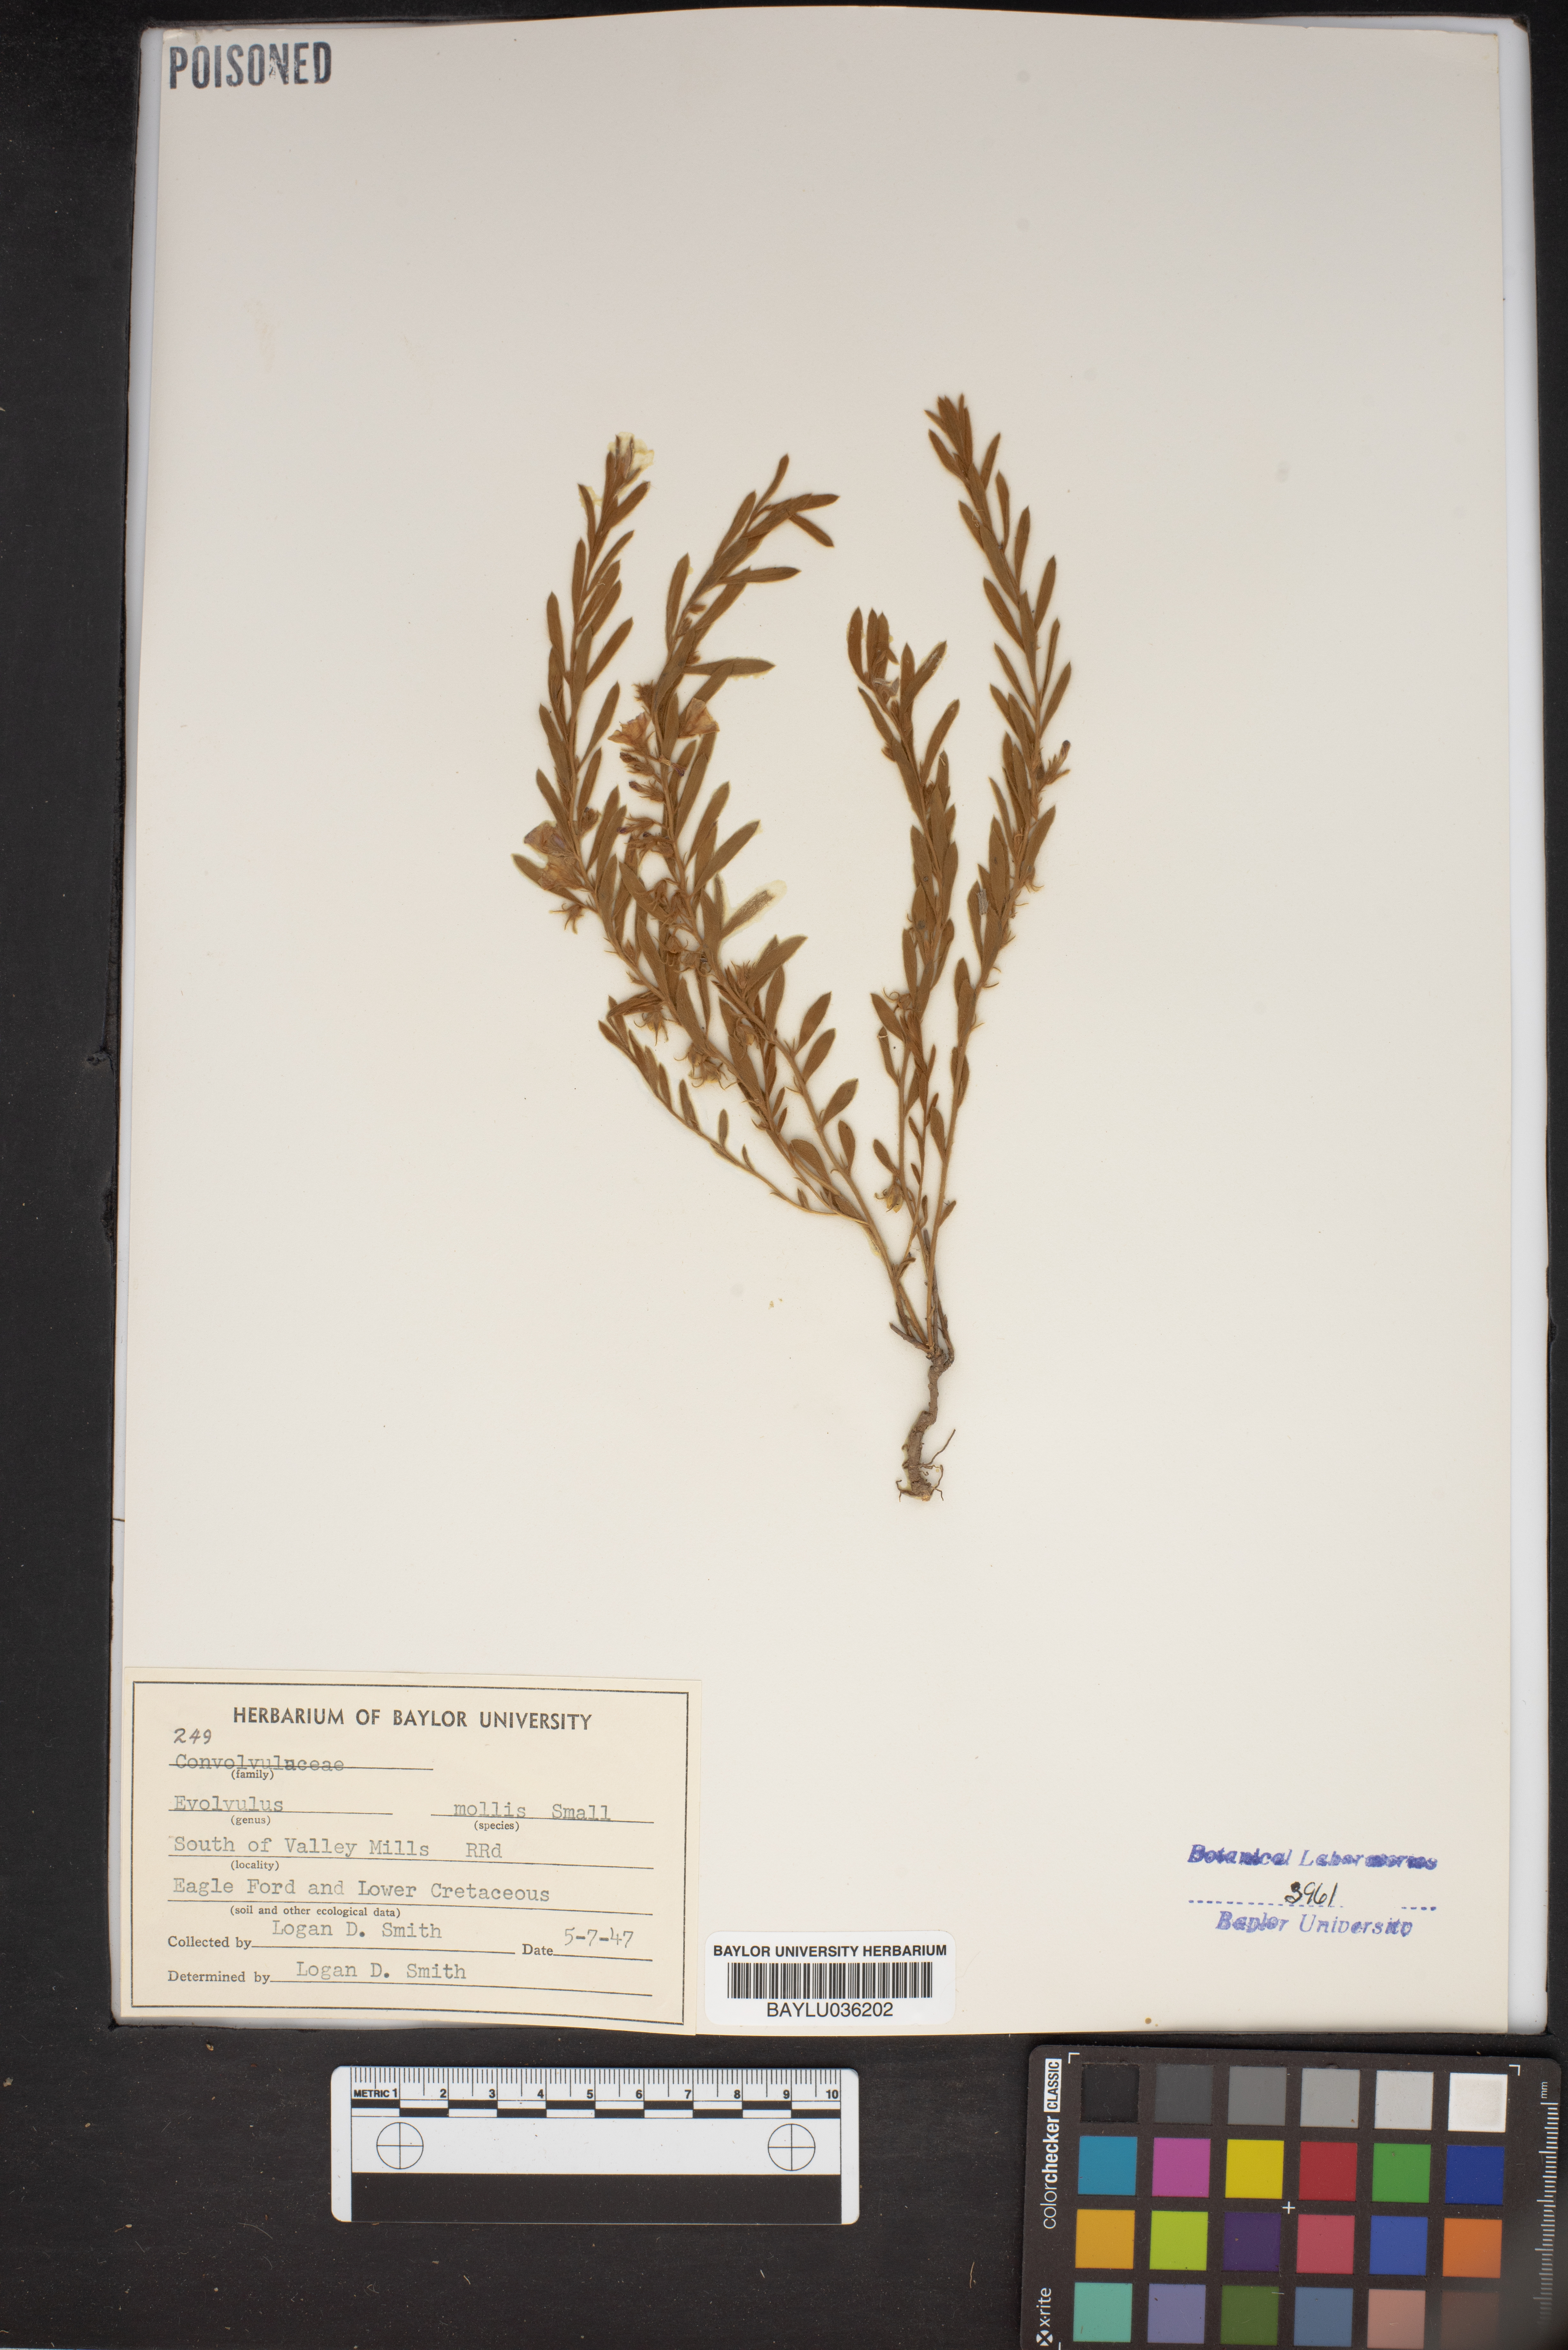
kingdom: Plantae
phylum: Tracheophyta
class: Magnoliopsida
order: Solanales
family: Convolvulaceae
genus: Evolvulus
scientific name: Evolvulus nuttallianus
